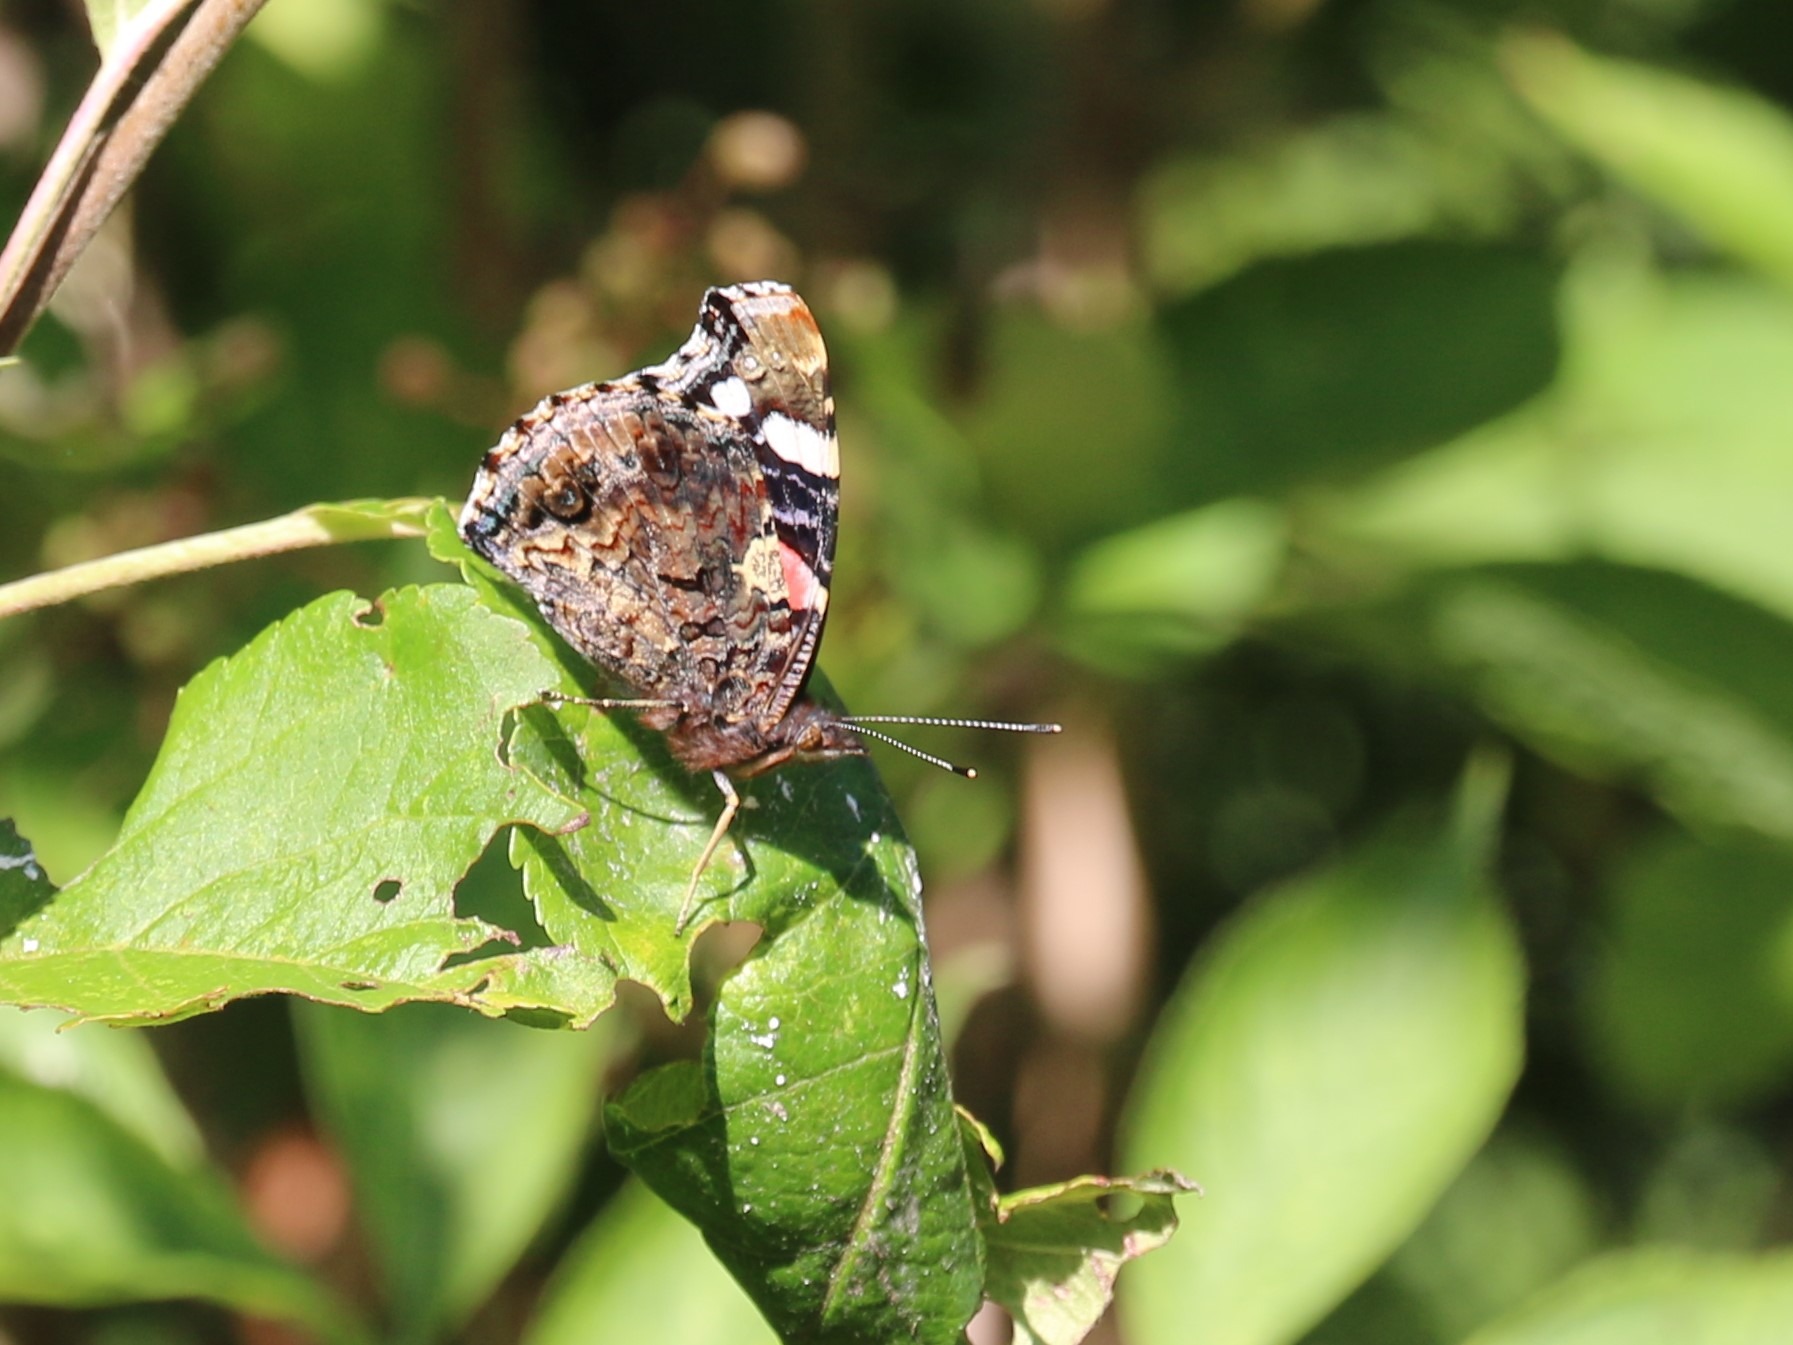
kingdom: Animalia
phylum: Arthropoda
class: Insecta
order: Lepidoptera
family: Nymphalidae
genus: Vanessa
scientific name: Vanessa atalanta
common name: Admiral
